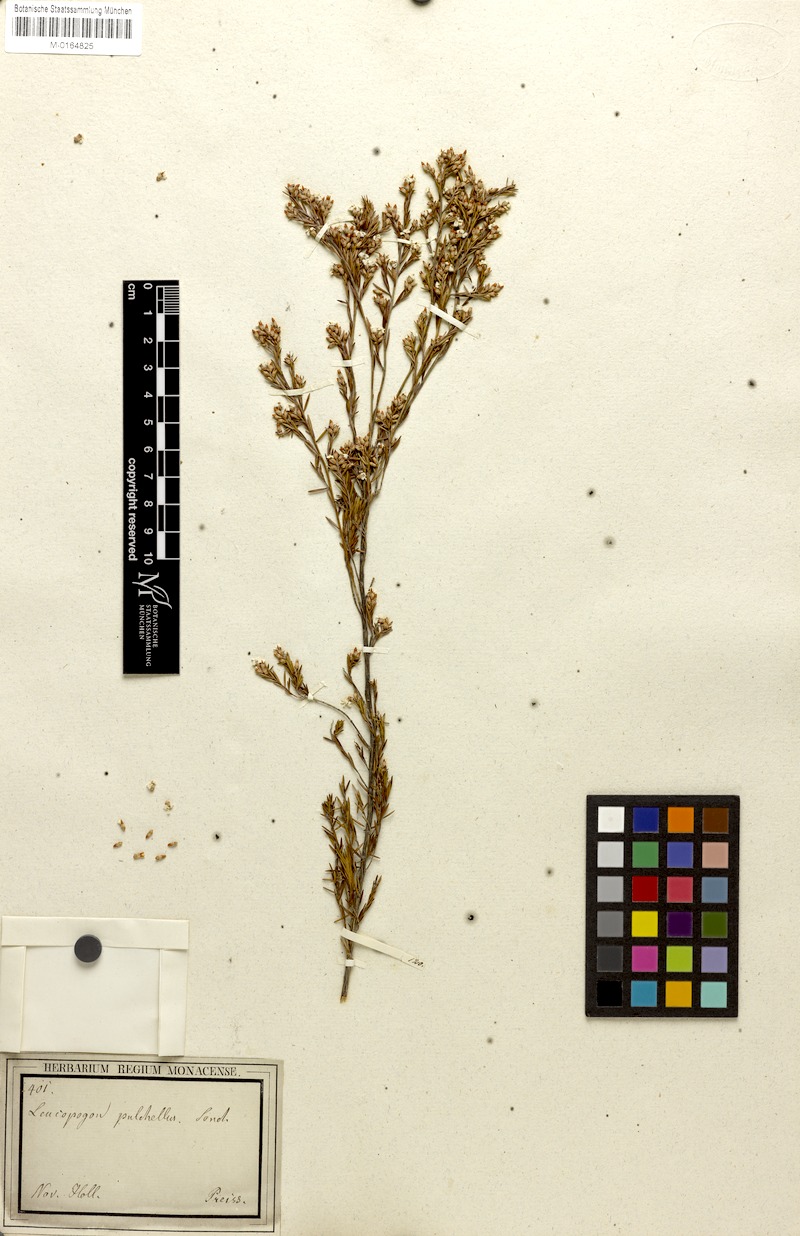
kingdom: Plantae
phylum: Tracheophyta
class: Magnoliopsida
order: Ericales
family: Ericaceae
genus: Leucopogon
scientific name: Leucopogon pulchellus
